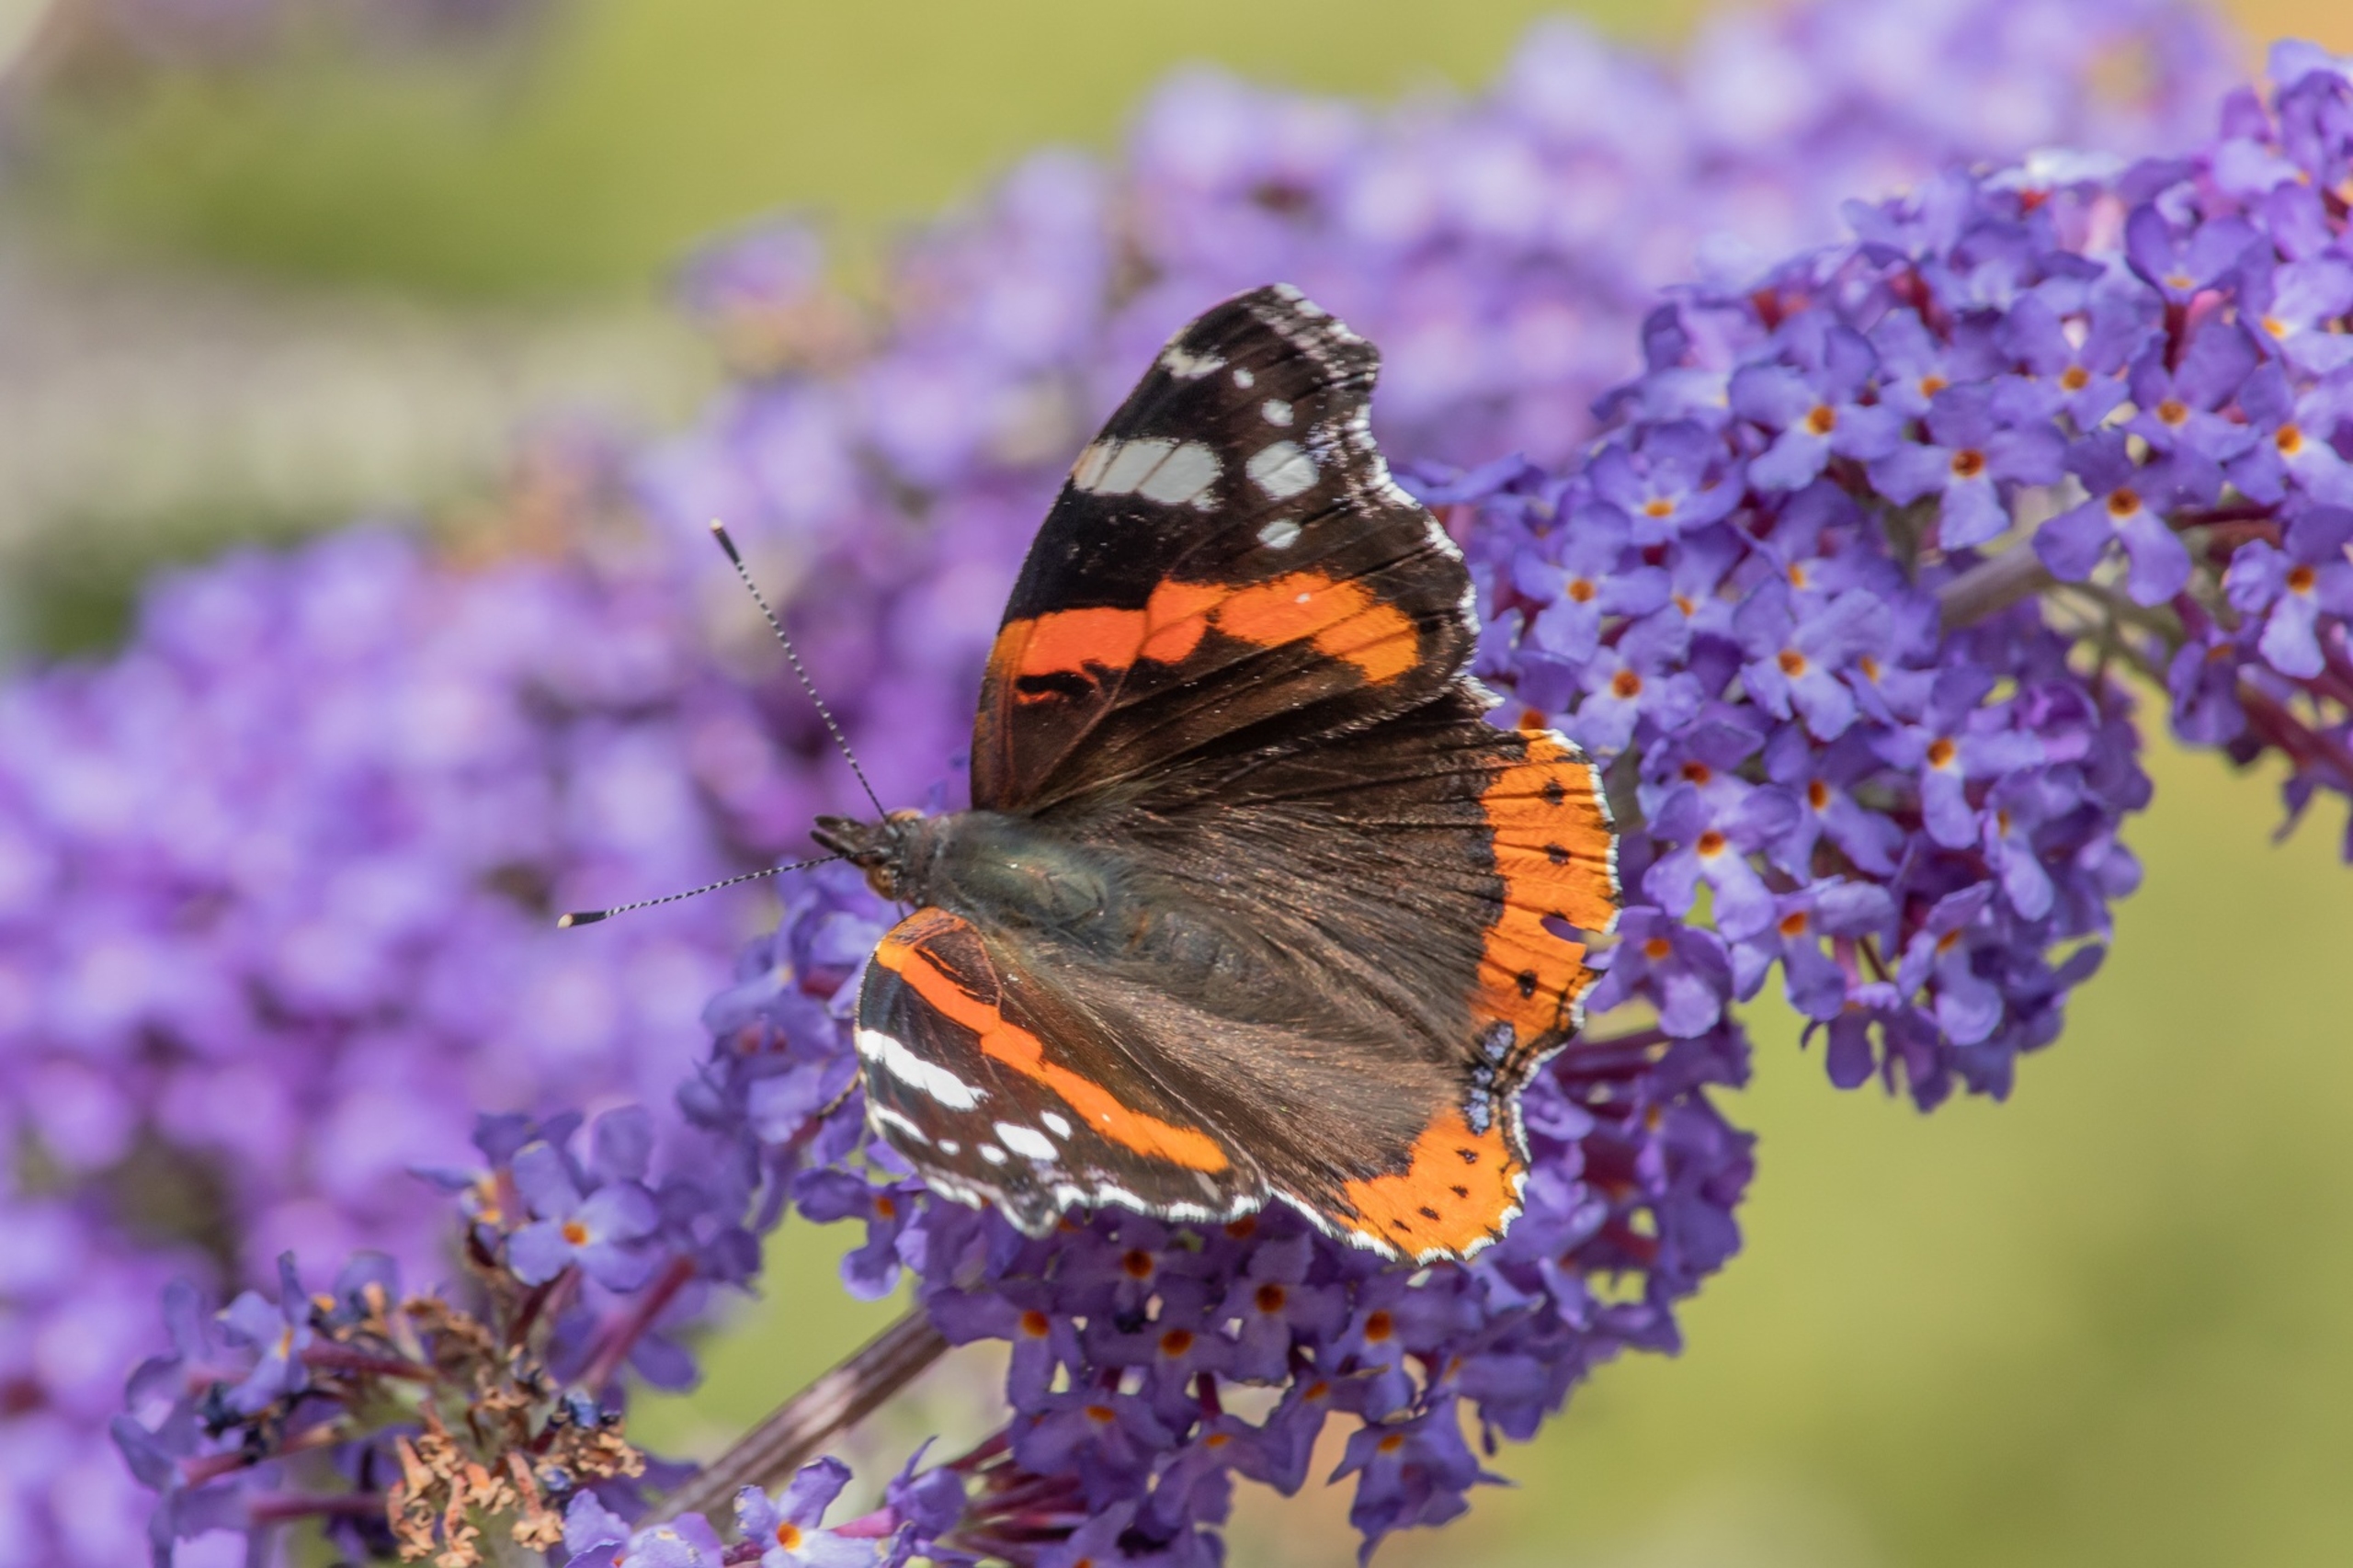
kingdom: Animalia
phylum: Arthropoda
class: Insecta
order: Lepidoptera
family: Nymphalidae
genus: Vanessa
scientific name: Vanessa atalanta
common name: Admiral
